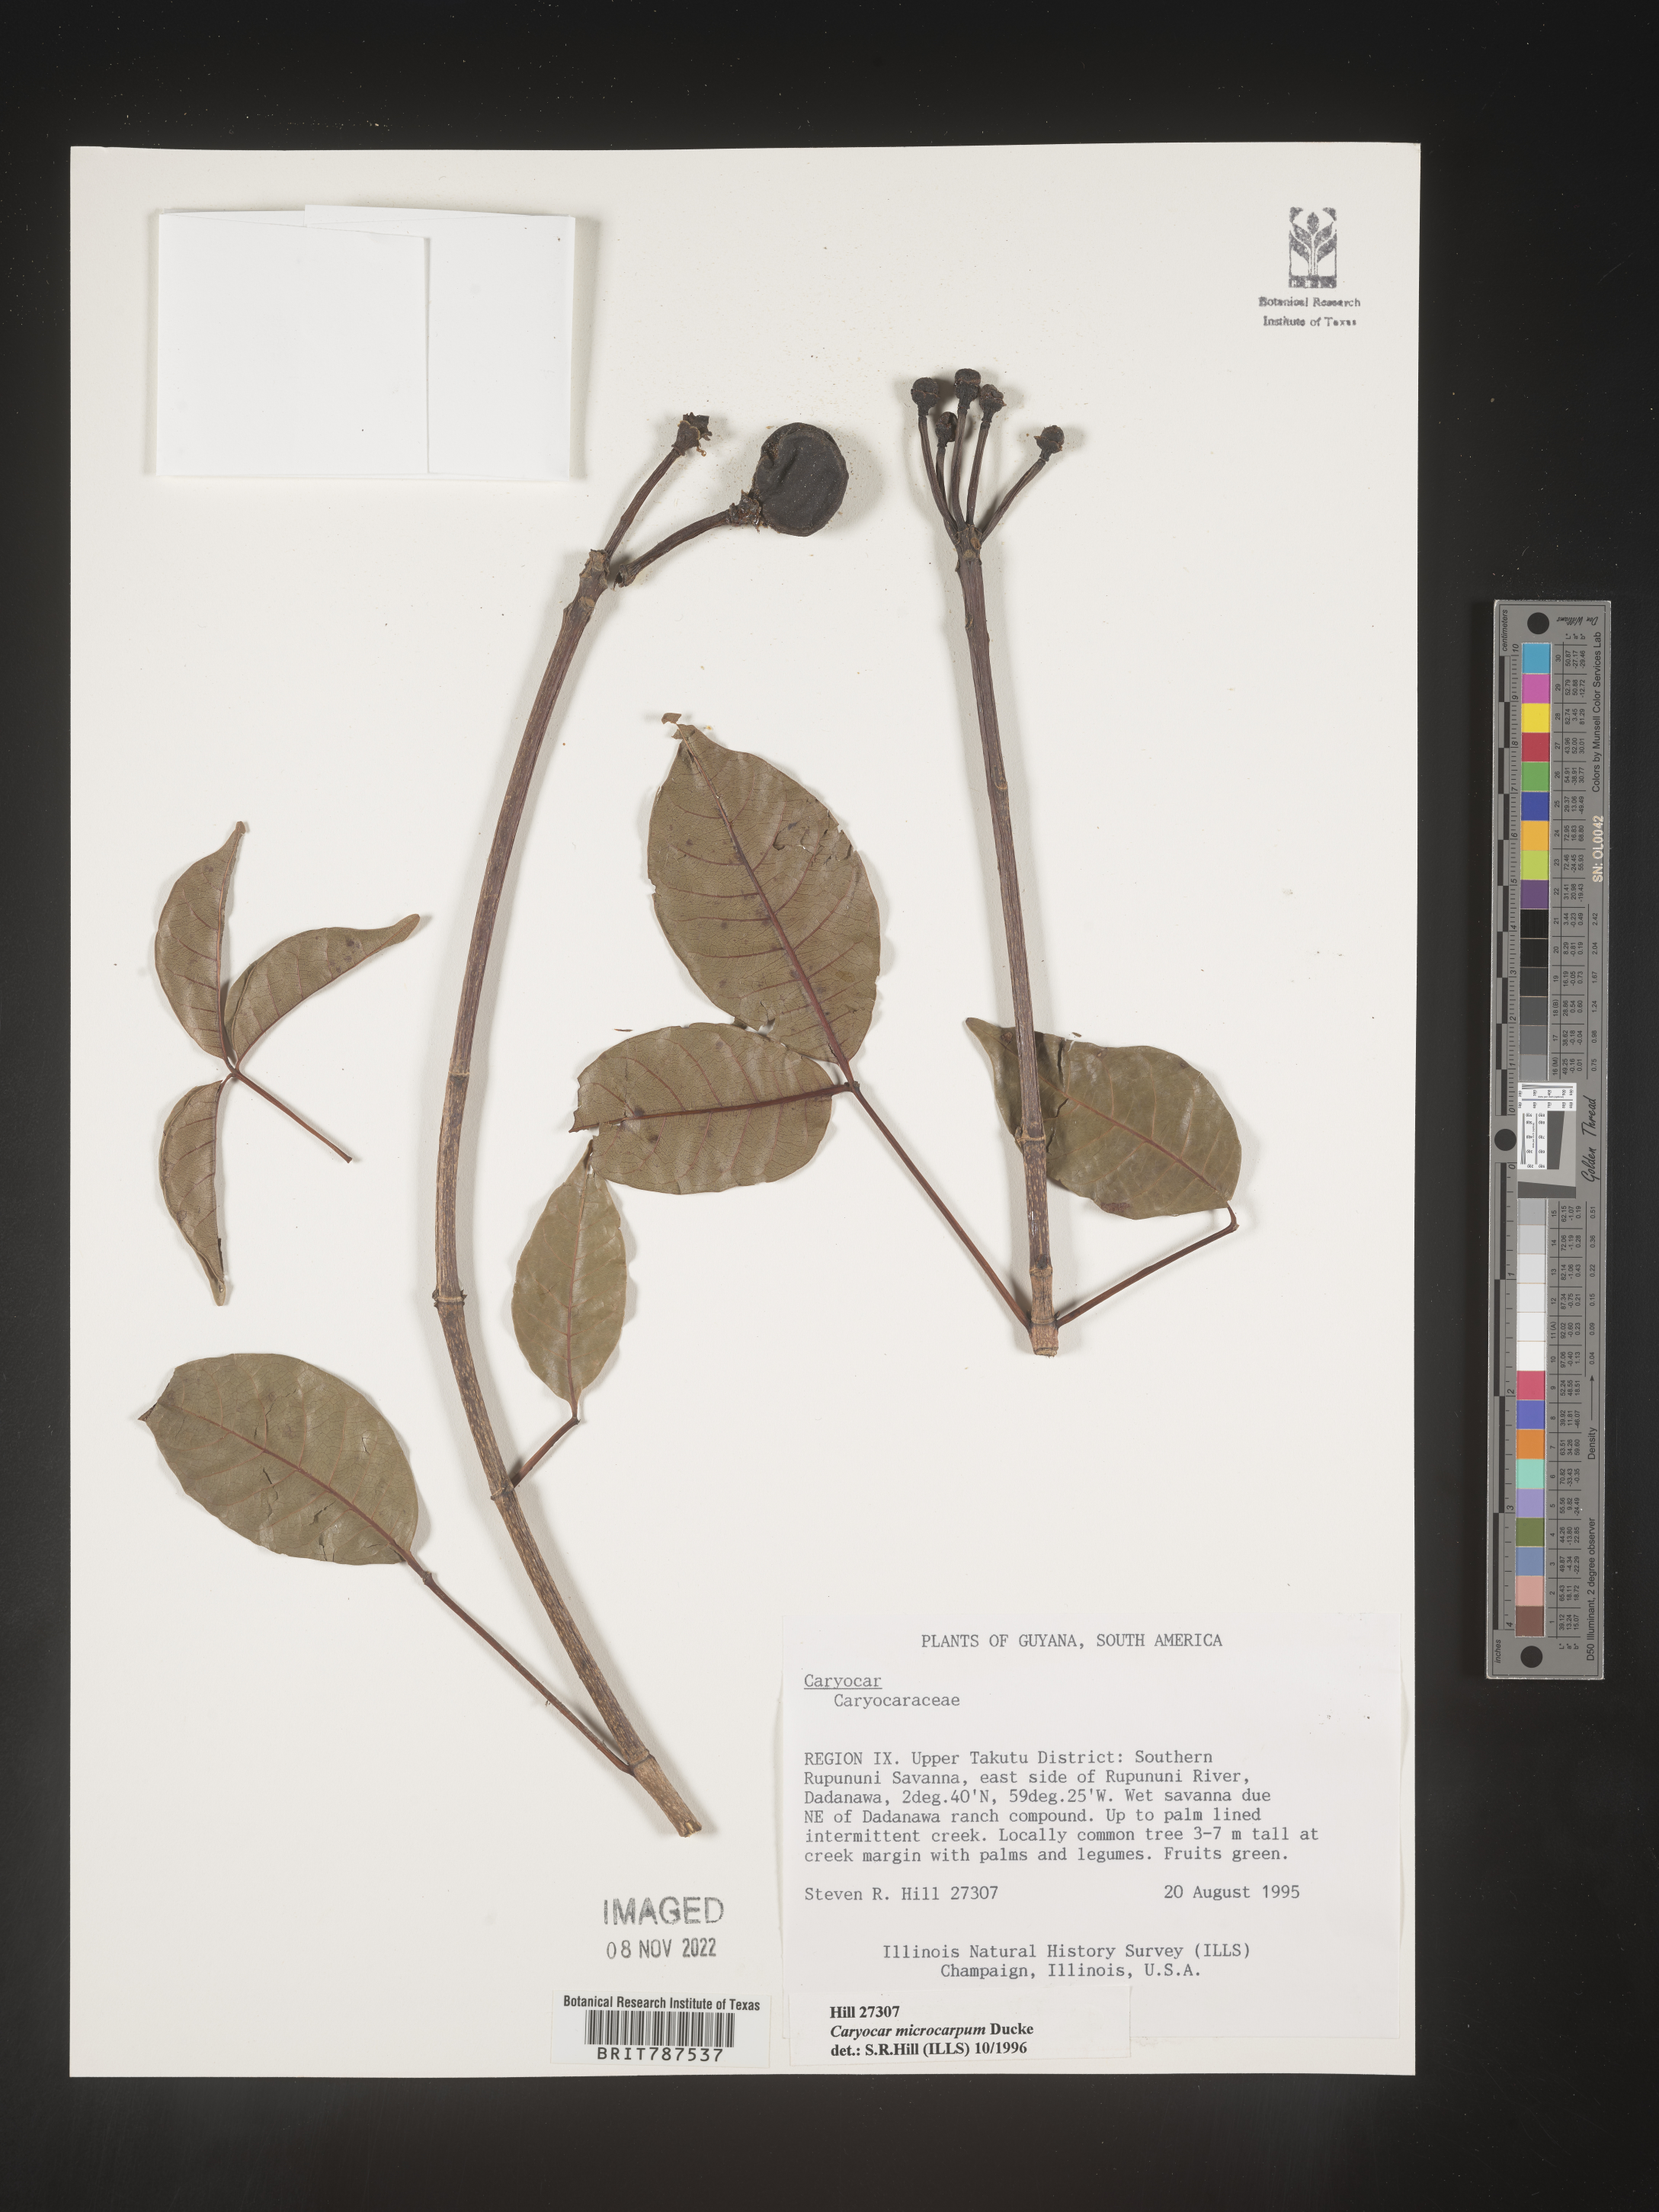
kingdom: Plantae
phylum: Tracheophyta
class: Magnoliopsida
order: Malpighiales
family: Caryocaraceae
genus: Caryocar
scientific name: Caryocar
